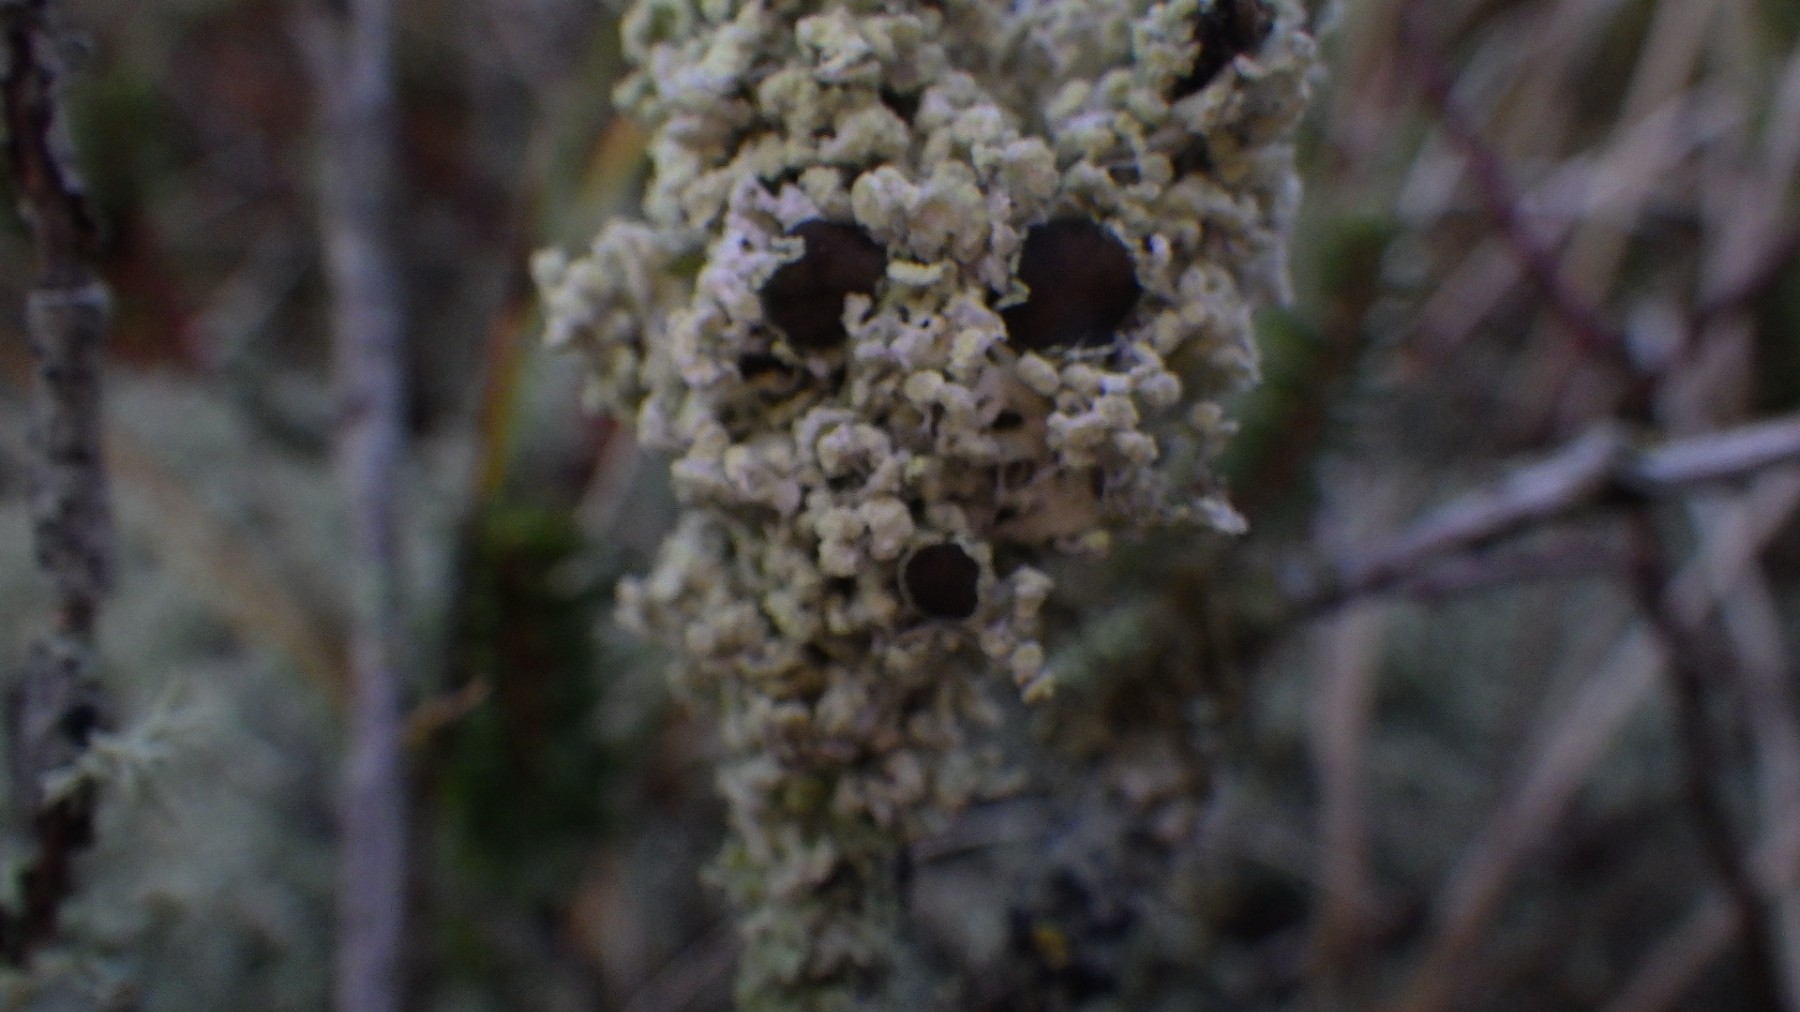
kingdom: Fungi
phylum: Ascomycota
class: Lecanoromycetes
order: Caliciales
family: Physciaceae
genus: Physcia
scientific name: Physcia tenella
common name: spæd rosetlav
